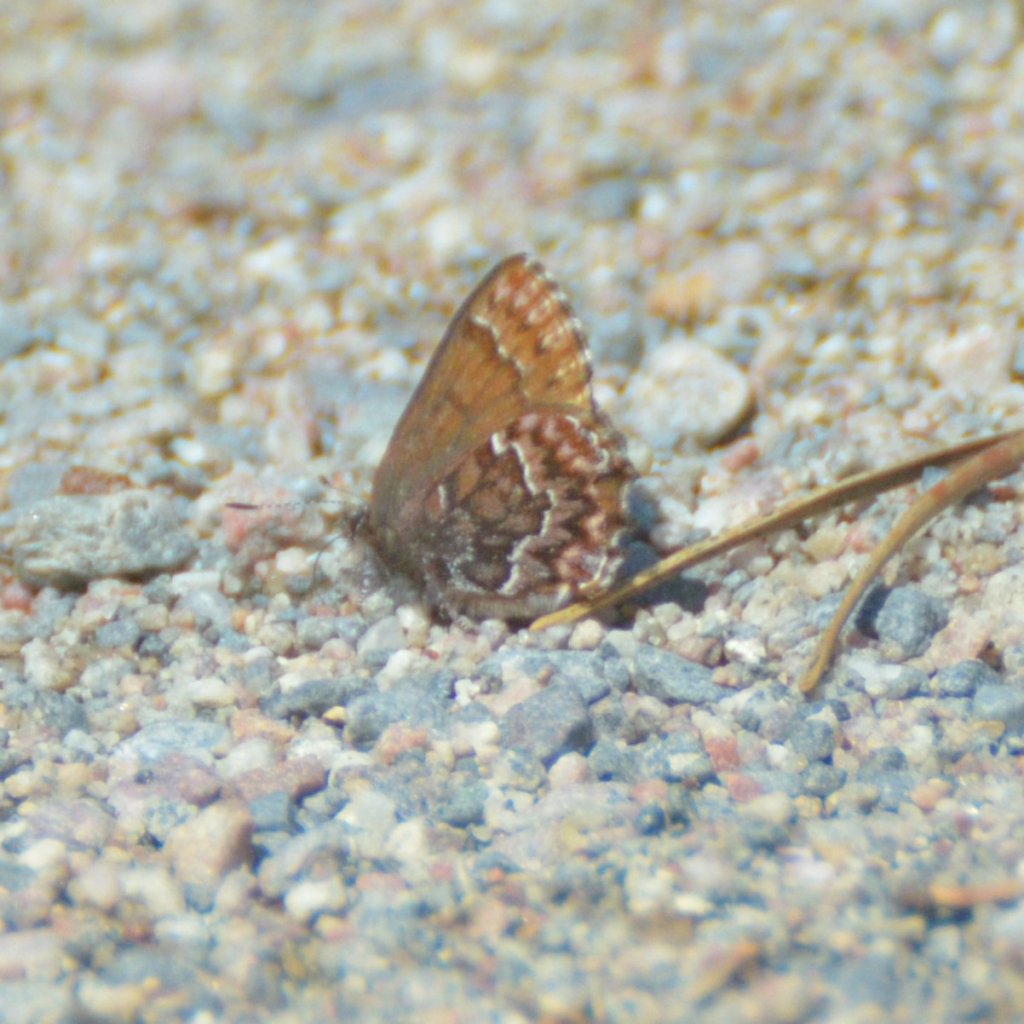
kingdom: Animalia
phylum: Arthropoda
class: Insecta
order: Lepidoptera
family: Lycaenidae
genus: Incisalia
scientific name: Incisalia eryphon
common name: Western Pine Elfin
